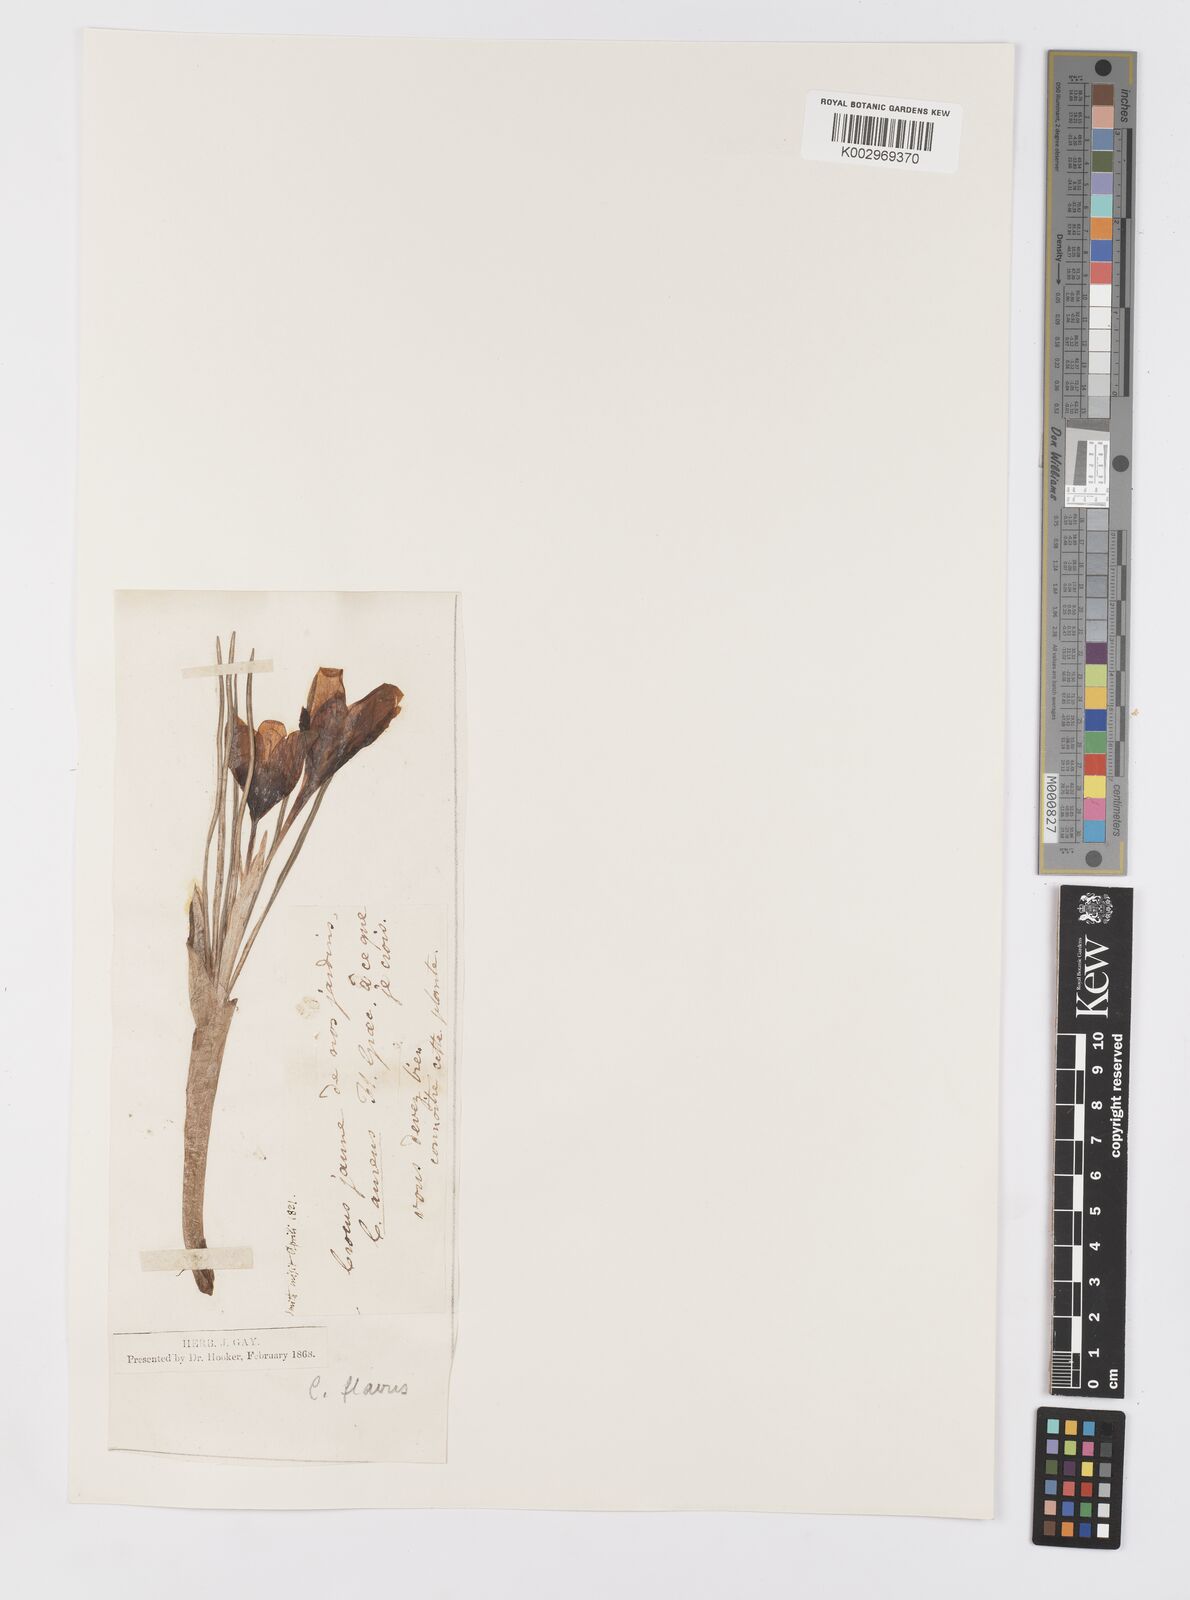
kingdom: Plantae
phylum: Tracheophyta
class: Liliopsida
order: Asparagales
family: Iridaceae
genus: Crocus
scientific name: Crocus flavus
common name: Yellow crocus
